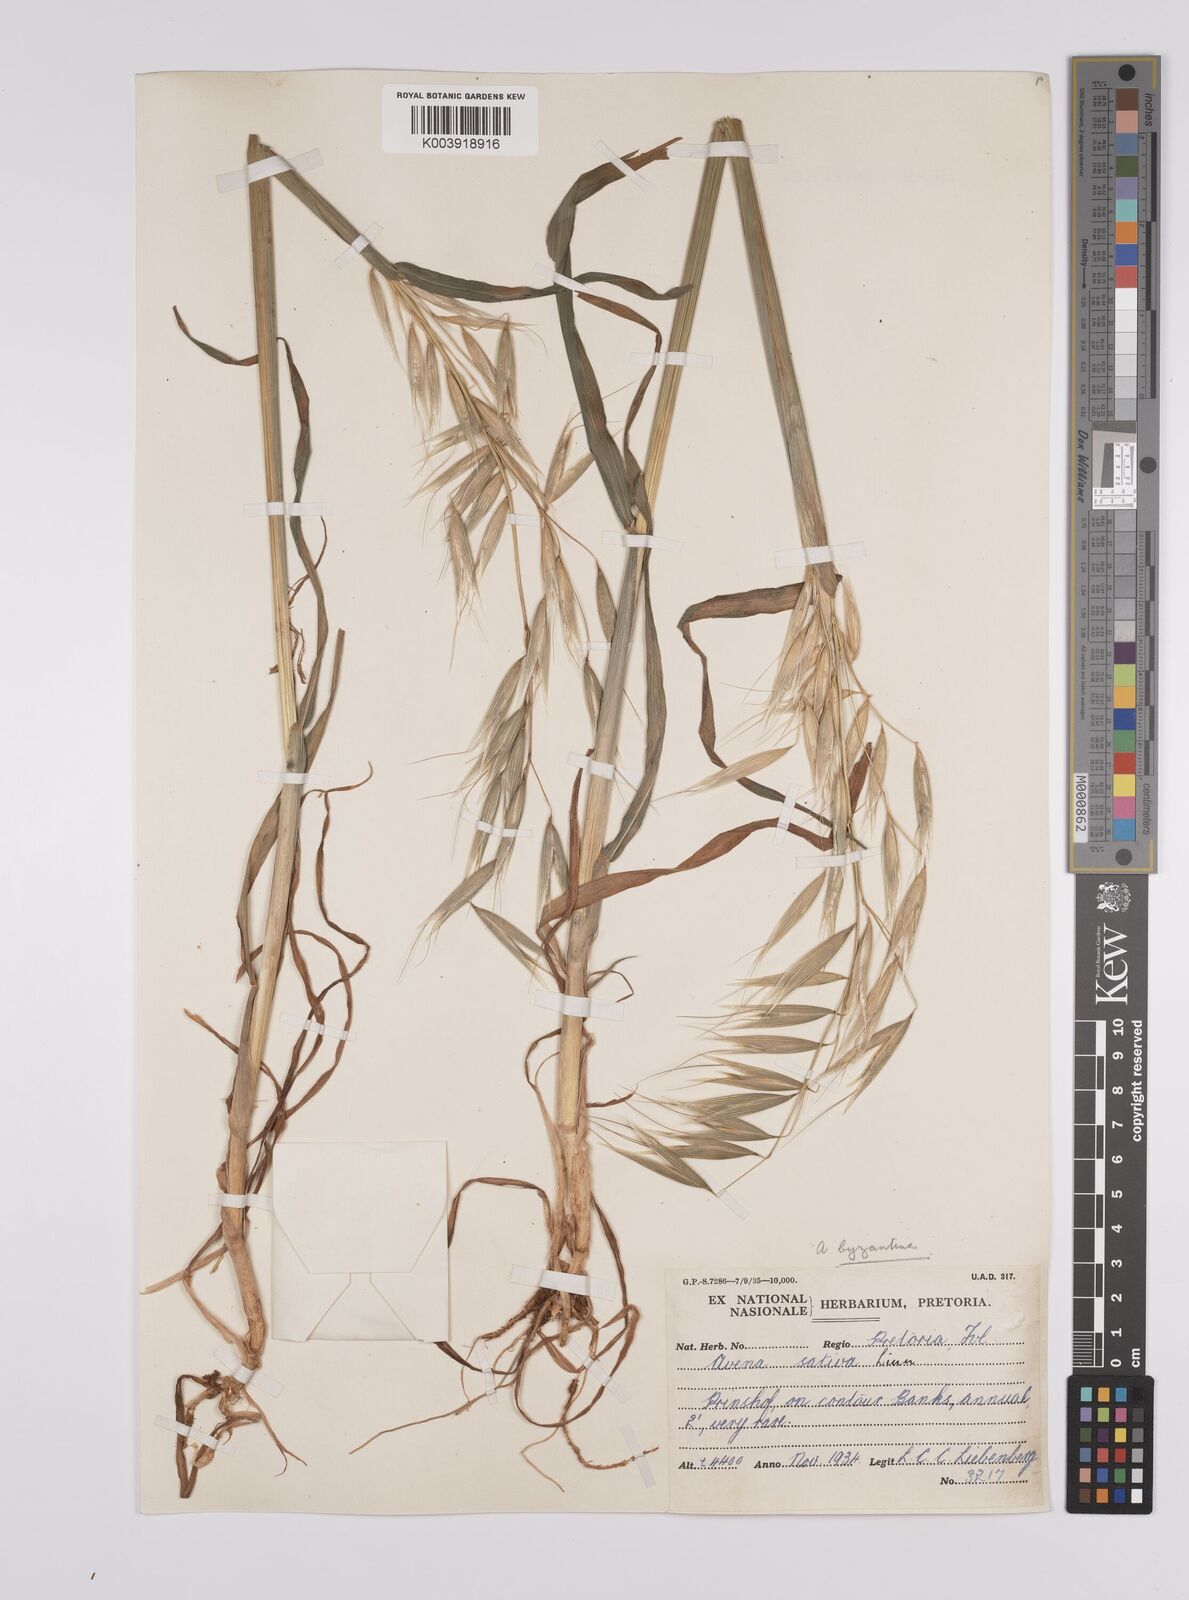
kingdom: Plantae
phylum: Tracheophyta
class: Liliopsida
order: Poales
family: Poaceae
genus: Avena
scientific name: Avena byzantina
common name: Algerian oat
